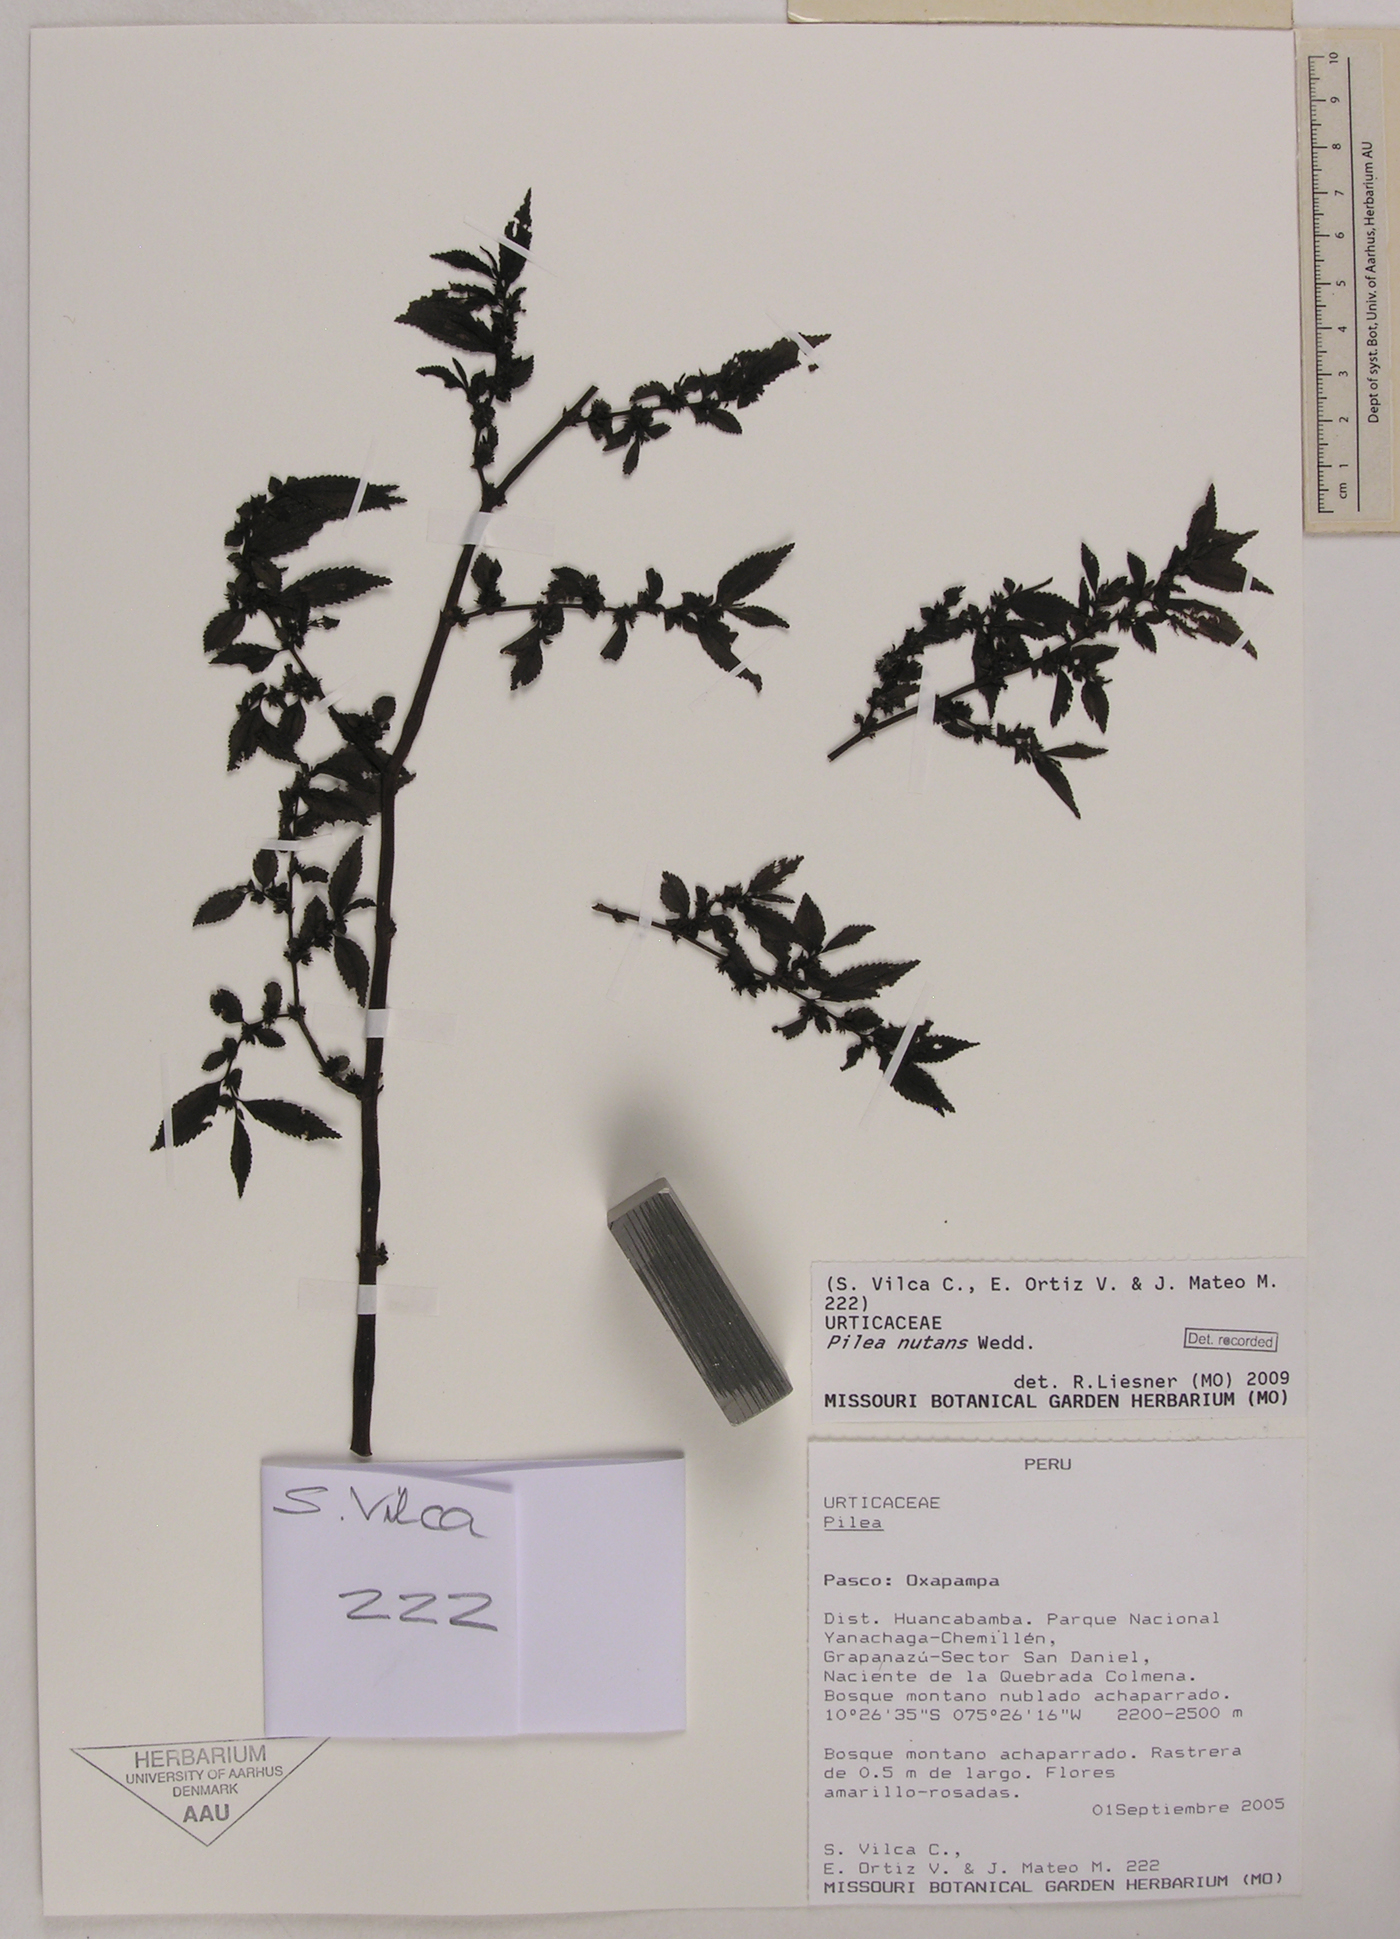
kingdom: Plantae
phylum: Tracheophyta
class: Magnoliopsida
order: Rosales
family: Urticaceae
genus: Pilea
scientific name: Pilea nutans
